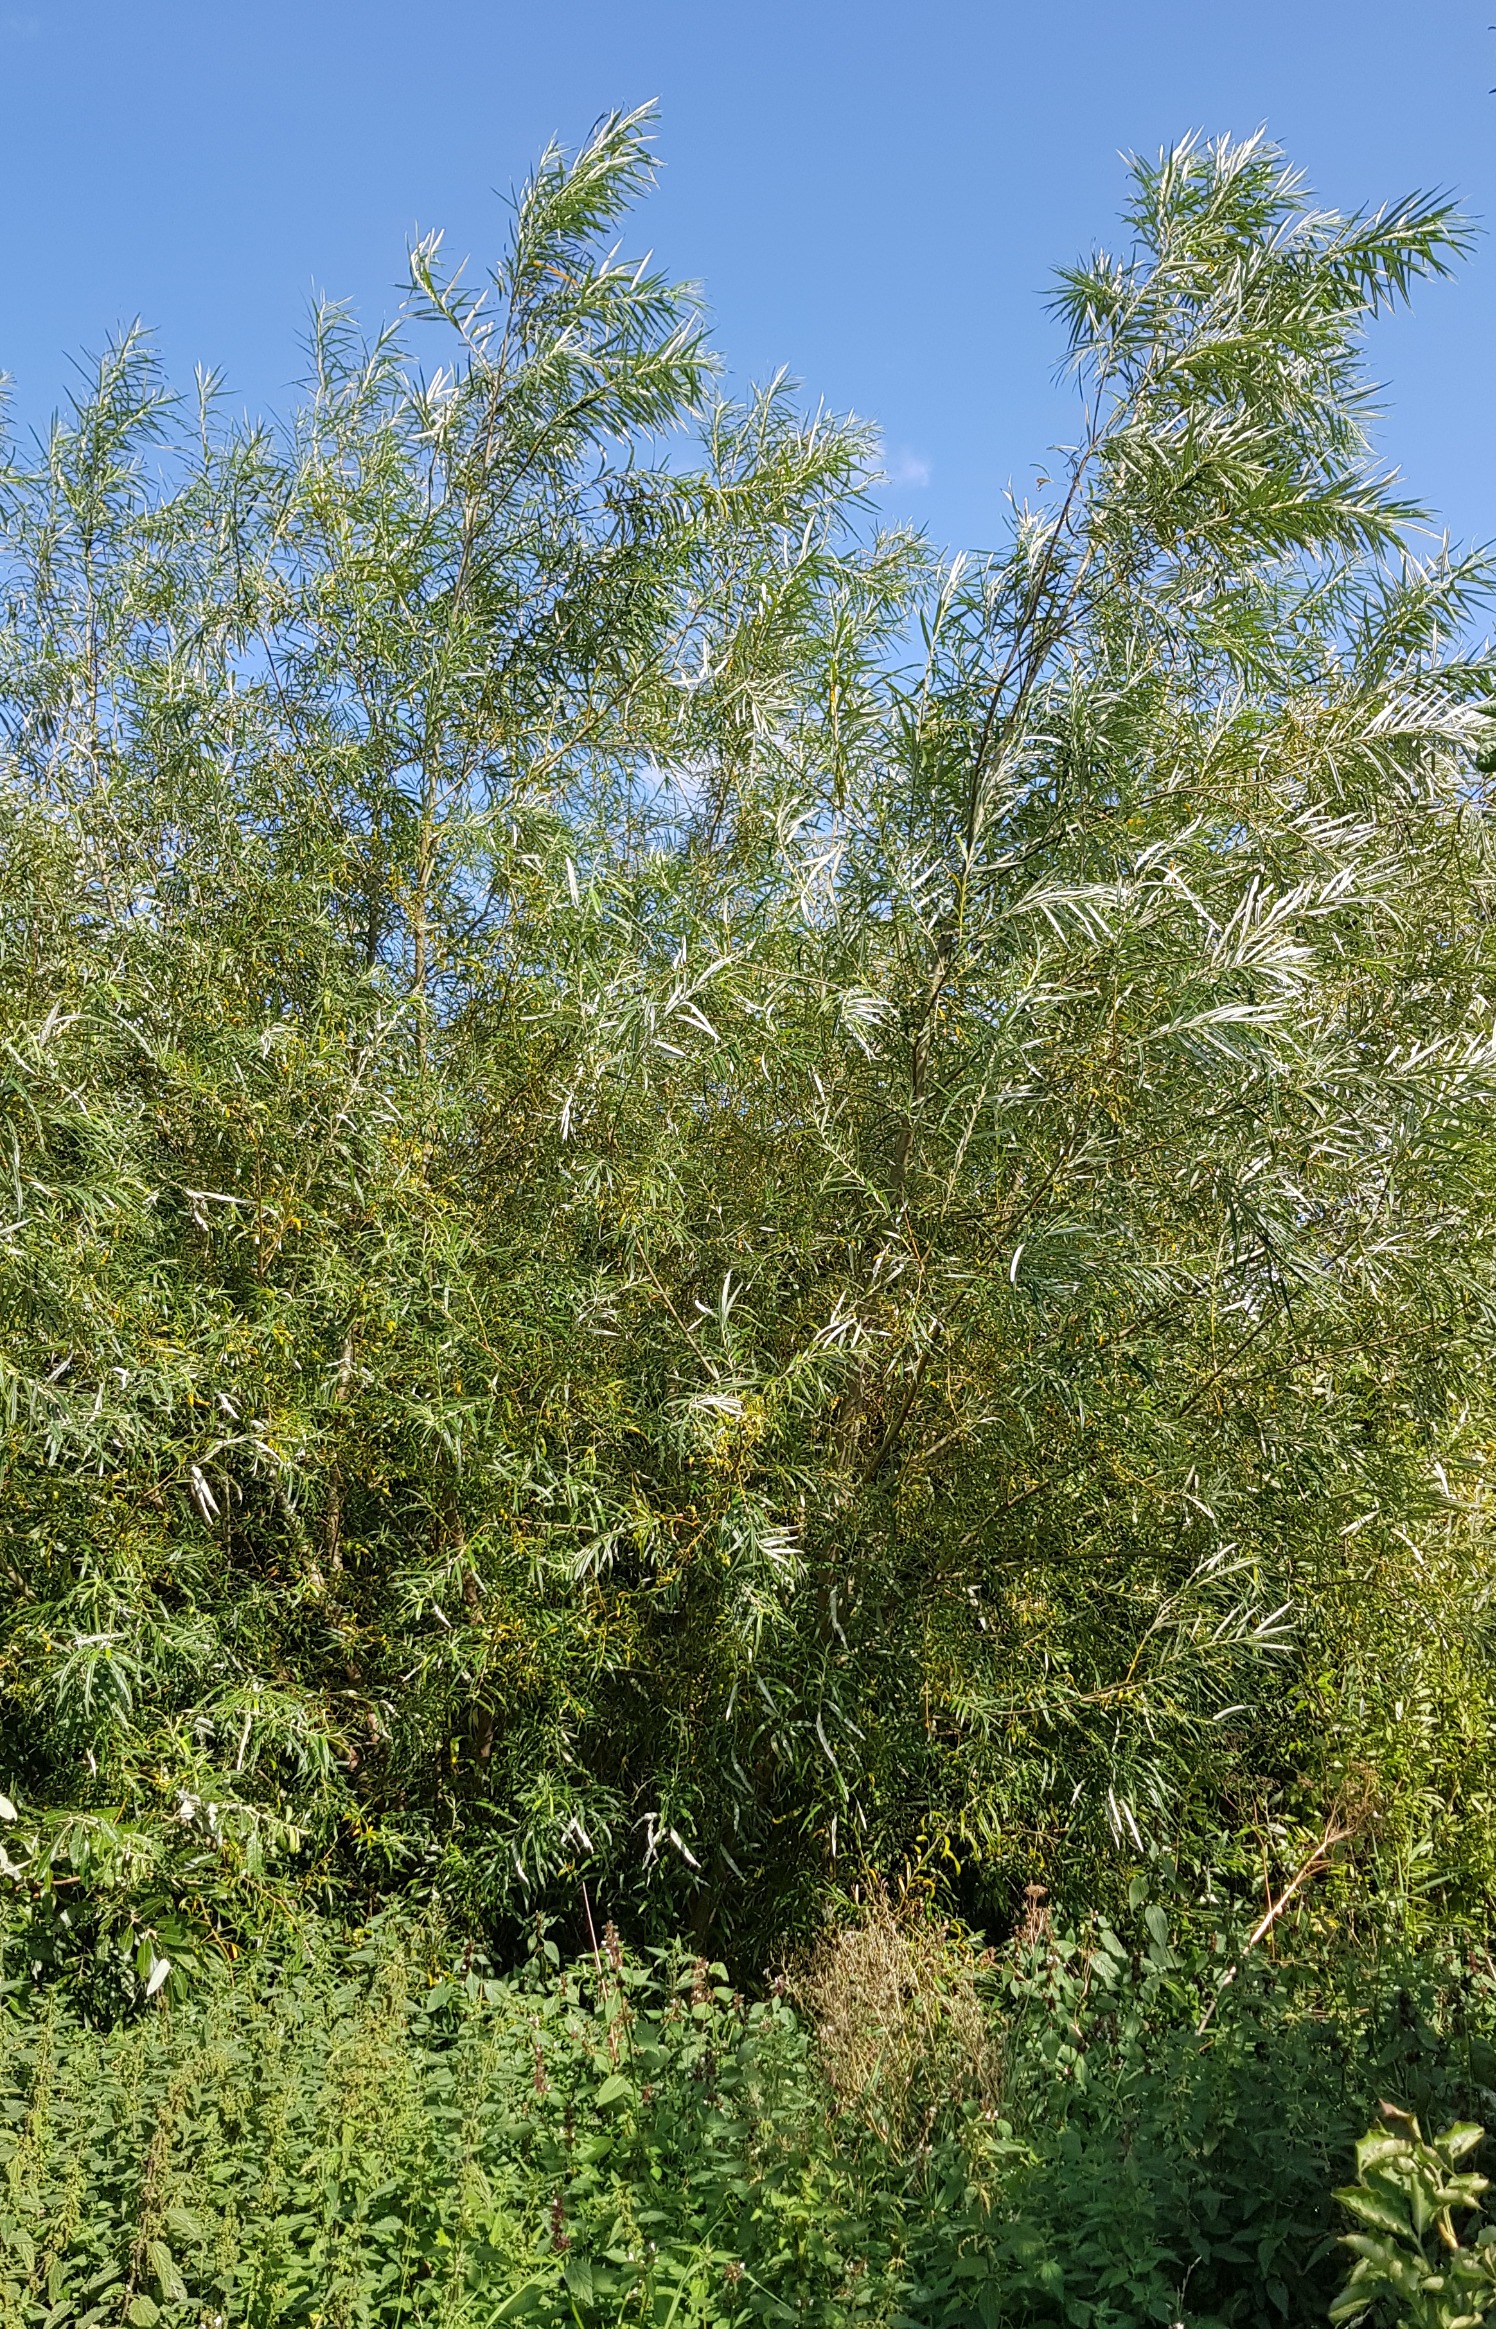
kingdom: Plantae
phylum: Tracheophyta
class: Magnoliopsida
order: Malpighiales
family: Salicaceae
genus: Salix
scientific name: Salix viminalis
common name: Bånd-pil
